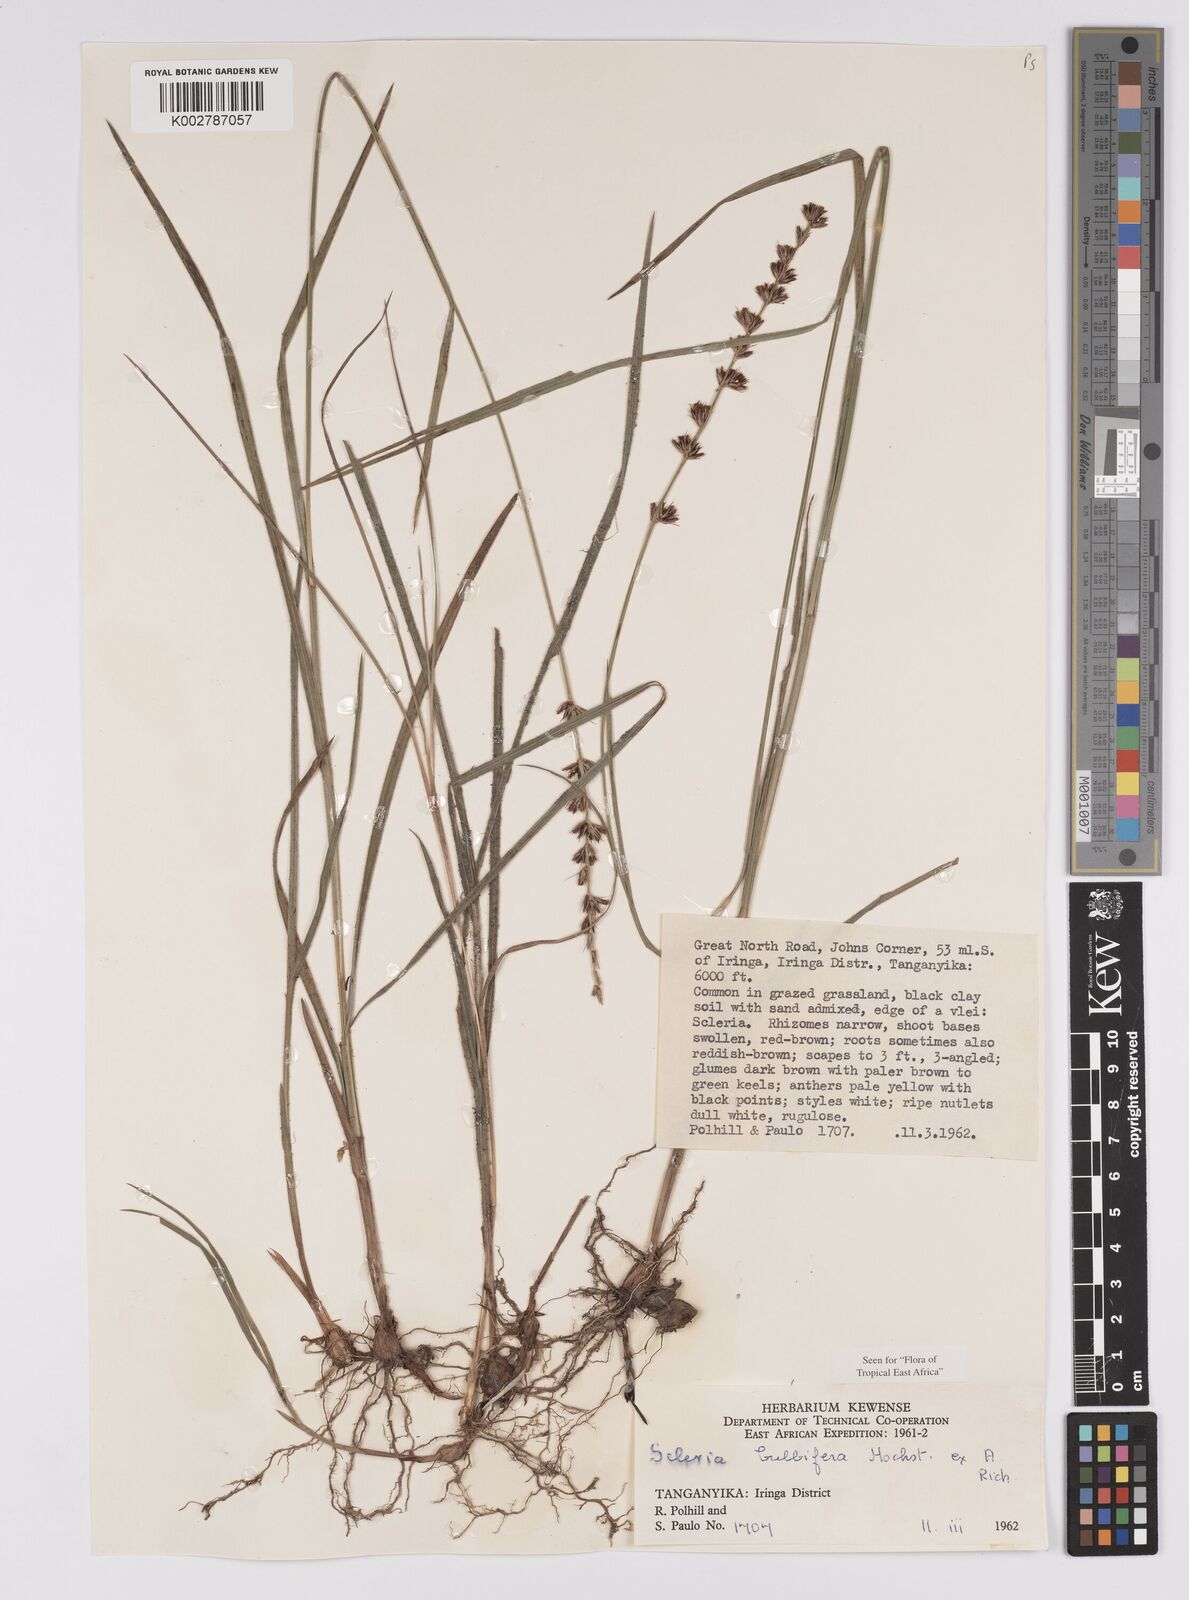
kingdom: Plantae
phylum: Tracheophyta
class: Liliopsida
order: Poales
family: Cyperaceae
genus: Scleria
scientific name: Scleria bulbifera
